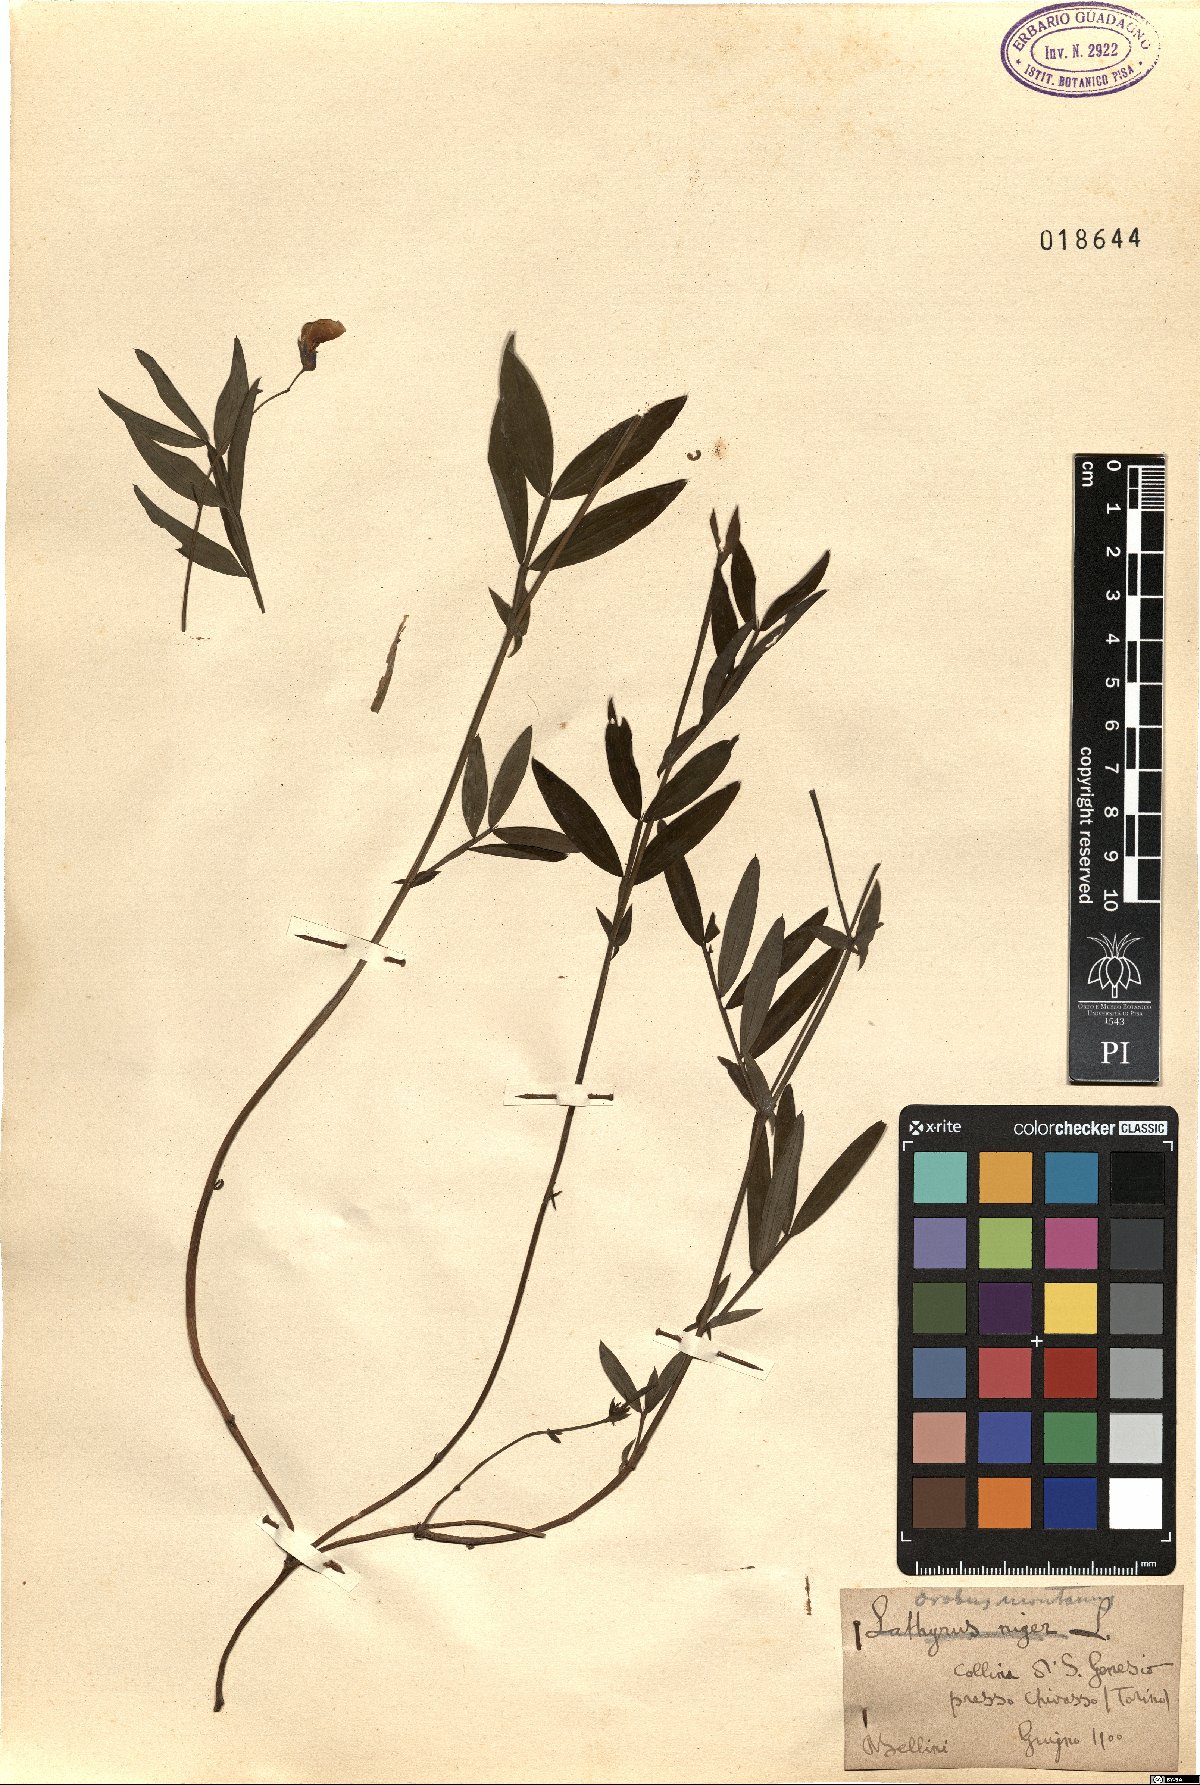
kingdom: Plantae
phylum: Tracheophyta
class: Magnoliopsida
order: Fabales
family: Fabaceae
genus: Lathyrus
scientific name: Lathyrus laevigatus
